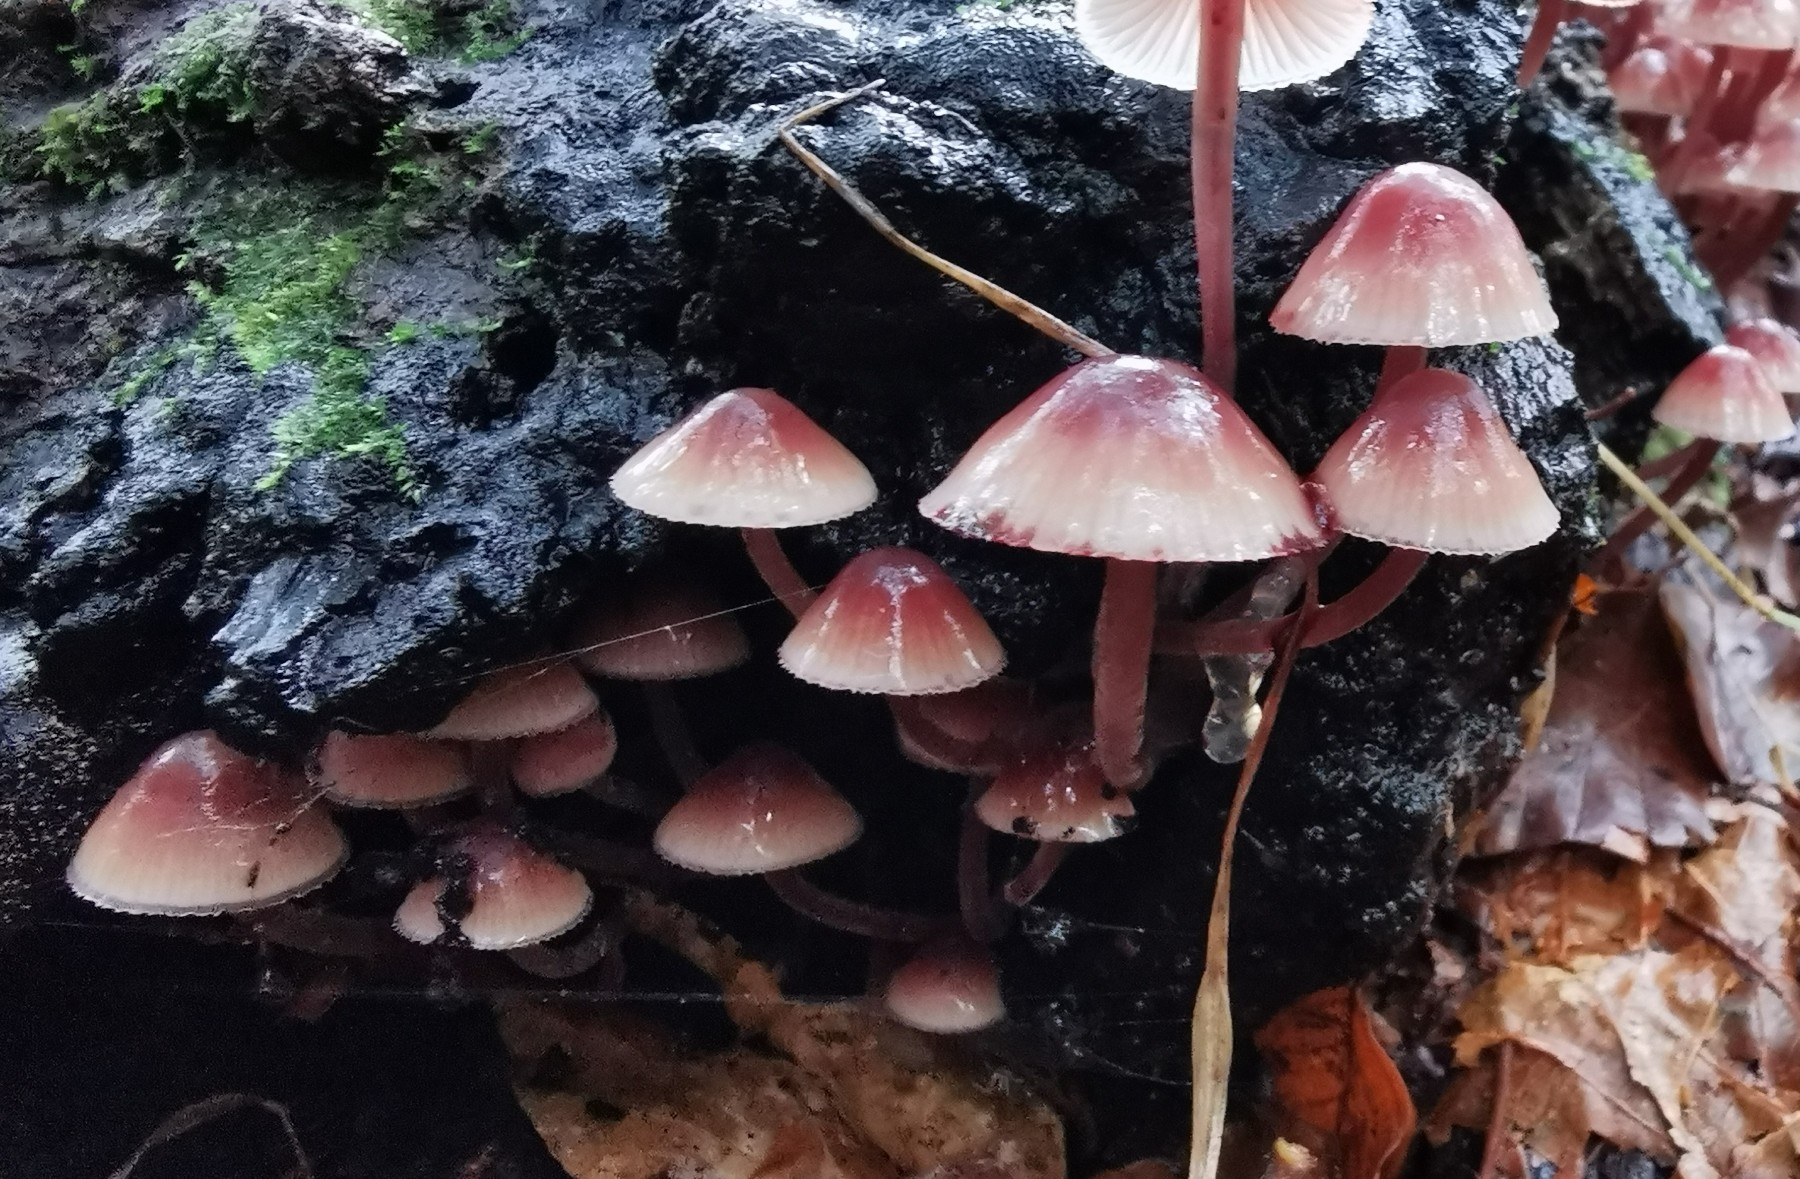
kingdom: Fungi
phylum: Basidiomycota
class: Agaricomycetes
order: Agaricales
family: Mycenaceae
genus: Mycena
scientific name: Mycena haematopus
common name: blødende huesvamp
